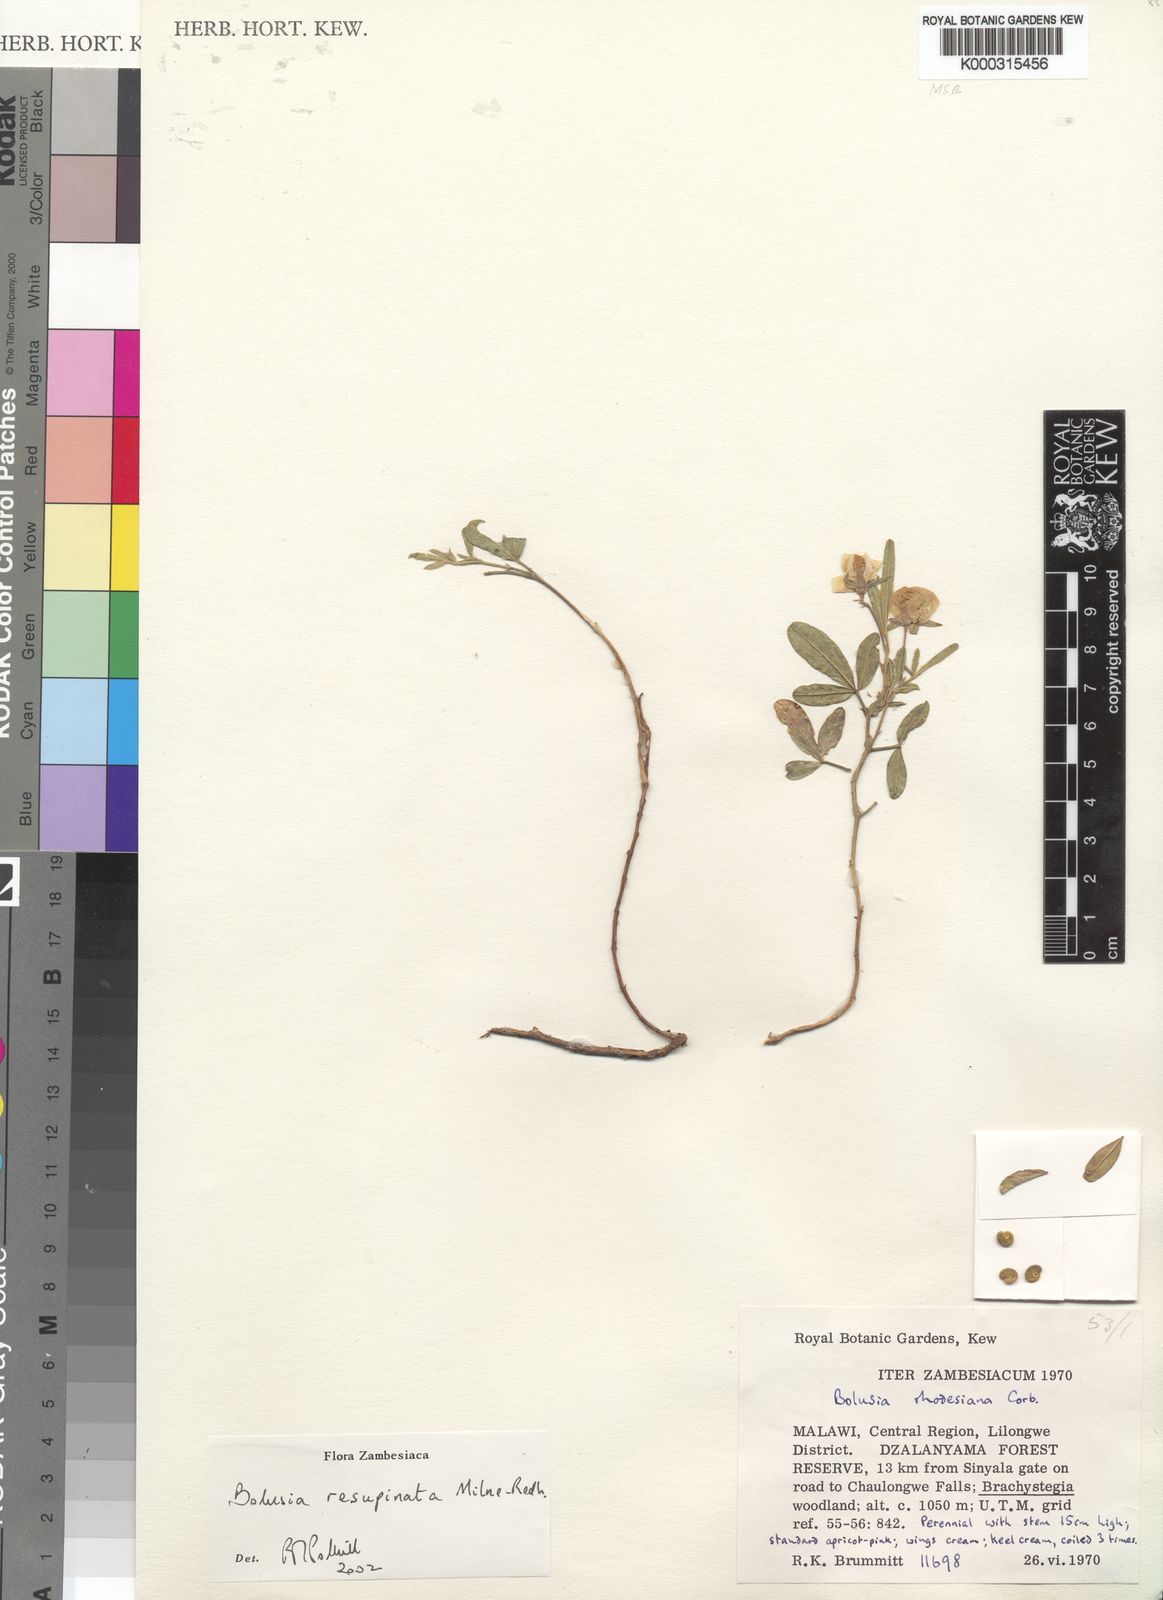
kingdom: Plantae
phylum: Tracheophyta
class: Magnoliopsida
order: Fabales
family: Fabaceae
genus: Bolusia
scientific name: Bolusia resupinata
